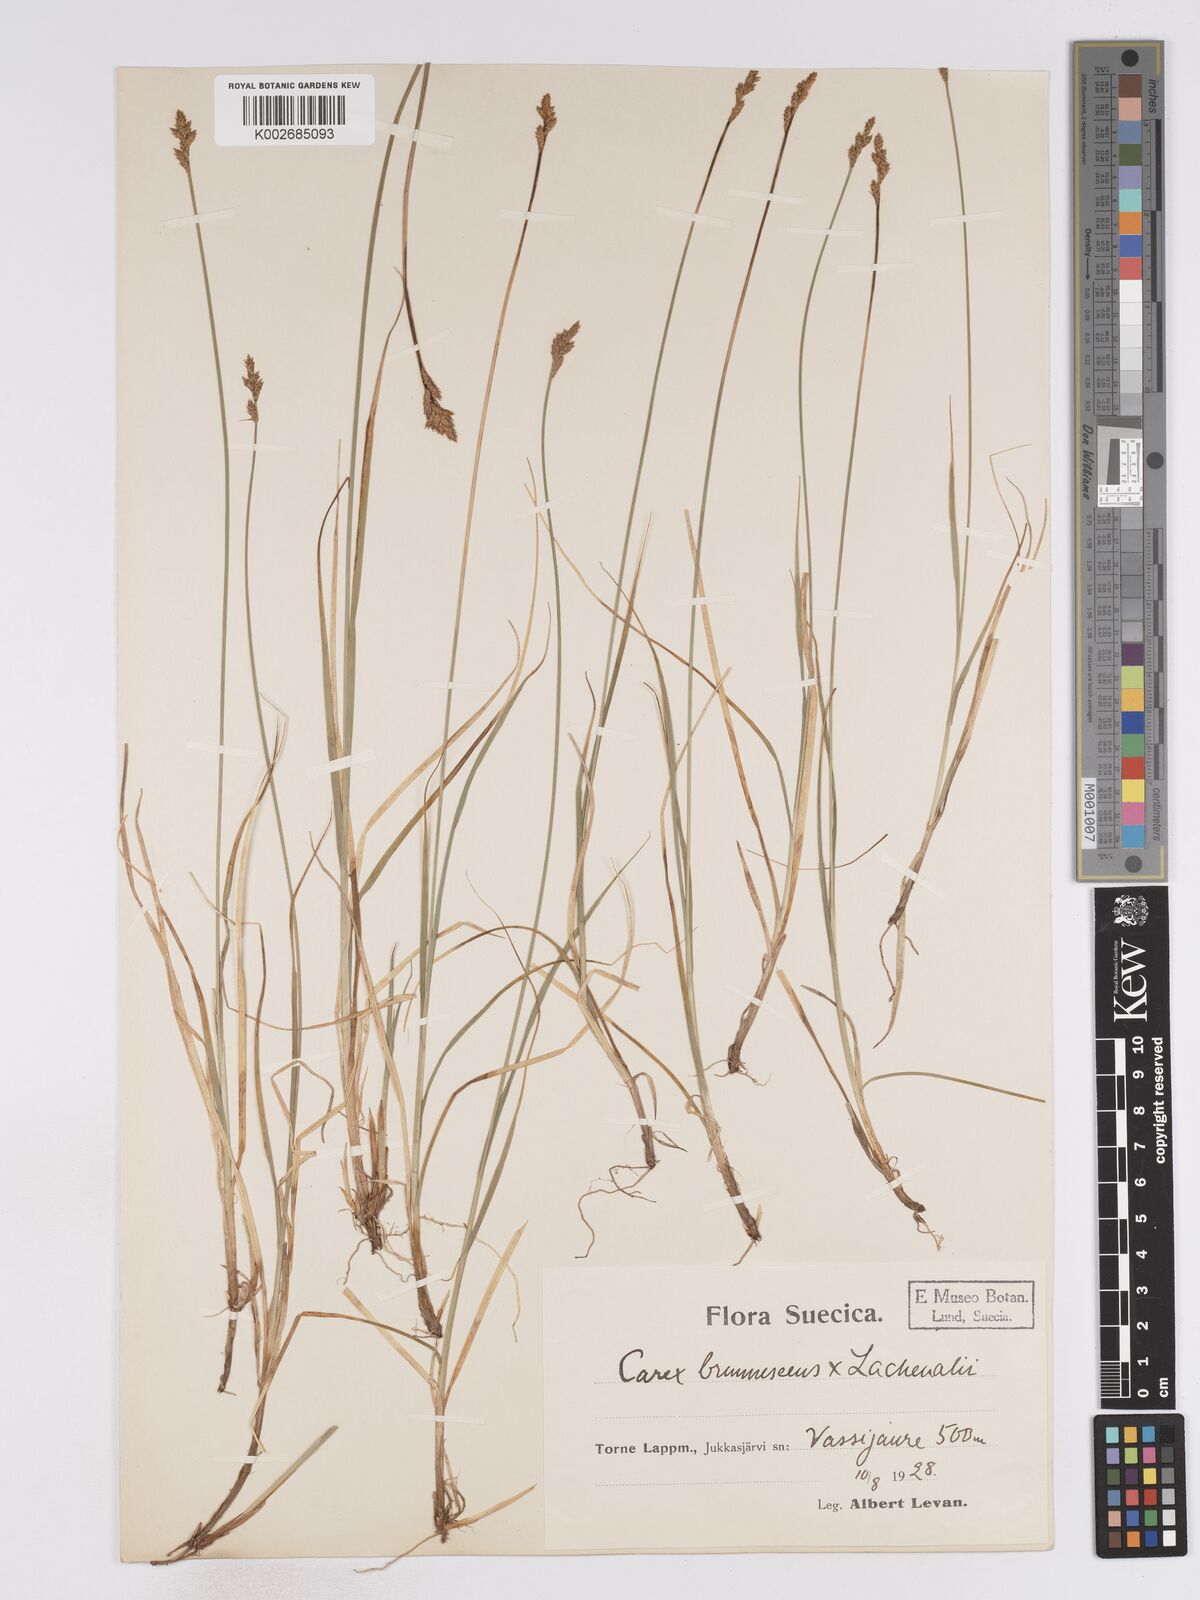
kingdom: Plantae
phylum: Tracheophyta
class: Liliopsida
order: Poales
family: Cyperaceae
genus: Carex
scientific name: Carex brunnescens
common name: Brown sedge
